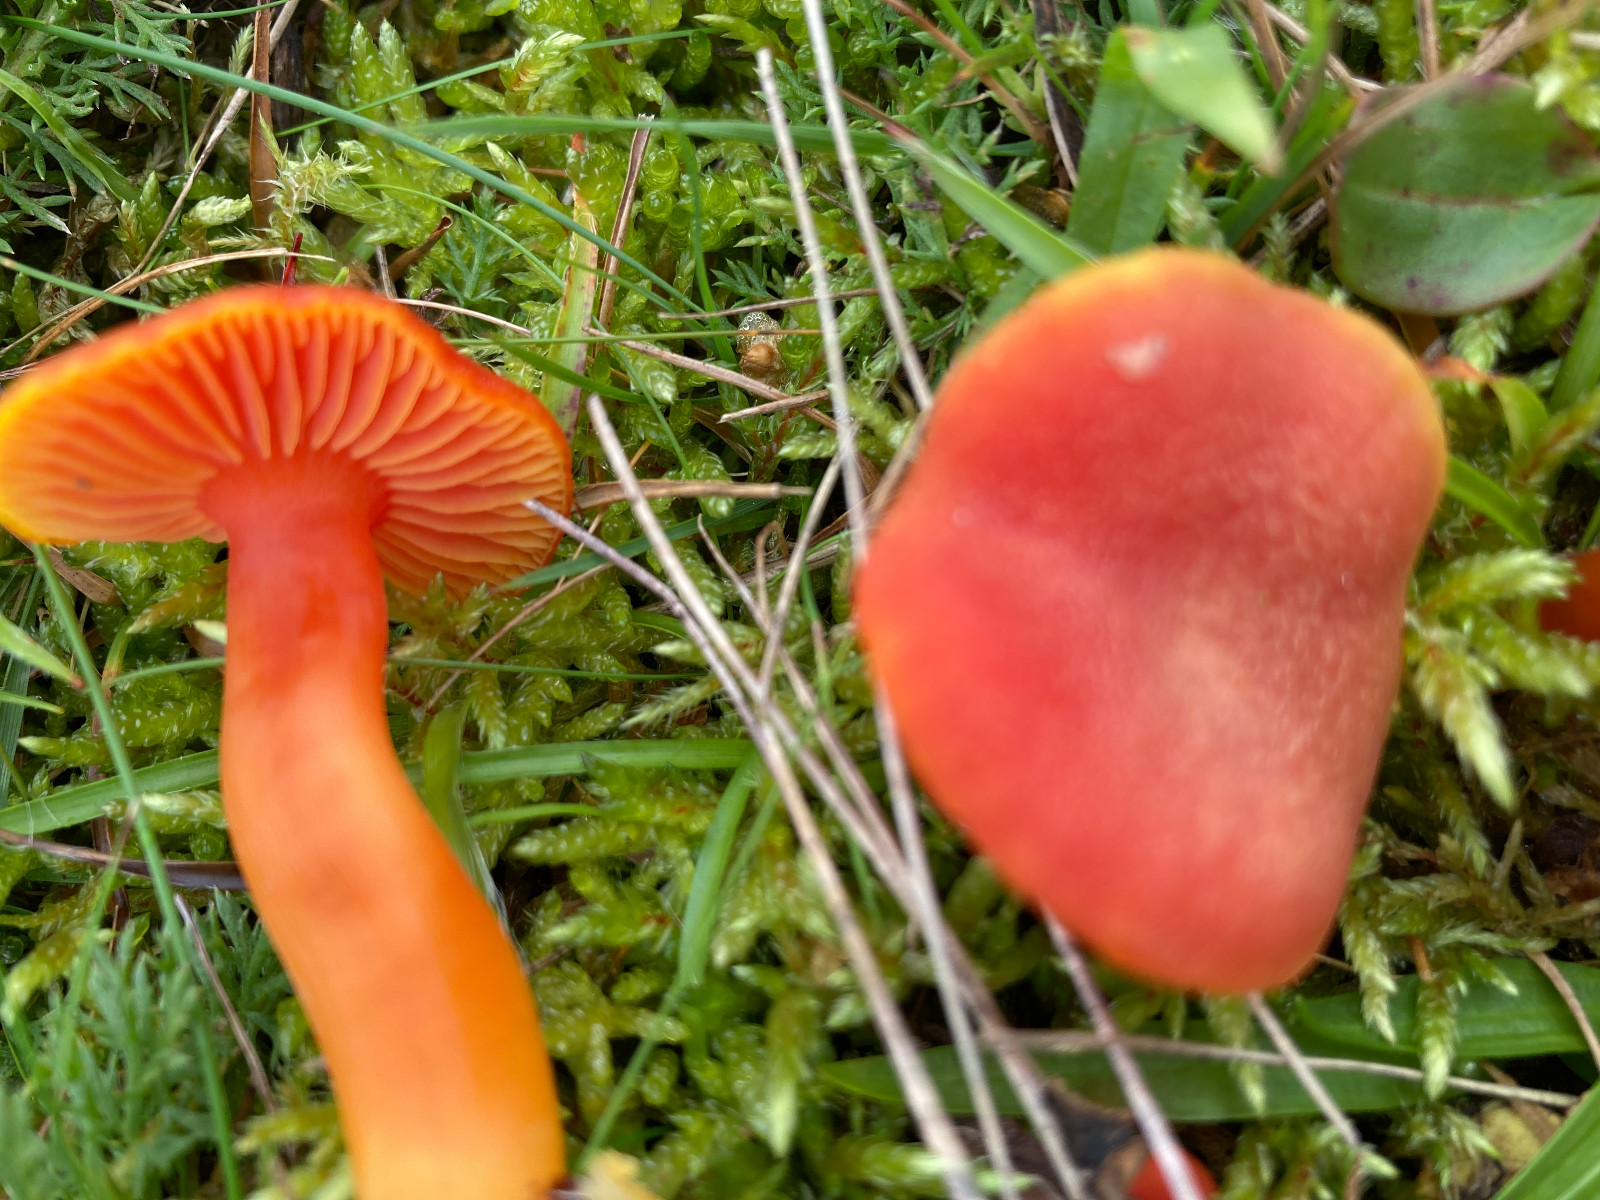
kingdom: Fungi
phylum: Basidiomycota
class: Agaricomycetes
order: Agaricales
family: Hygrophoraceae
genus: Hygrocybe
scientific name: Hygrocybe miniata
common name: mønje-vokshat
